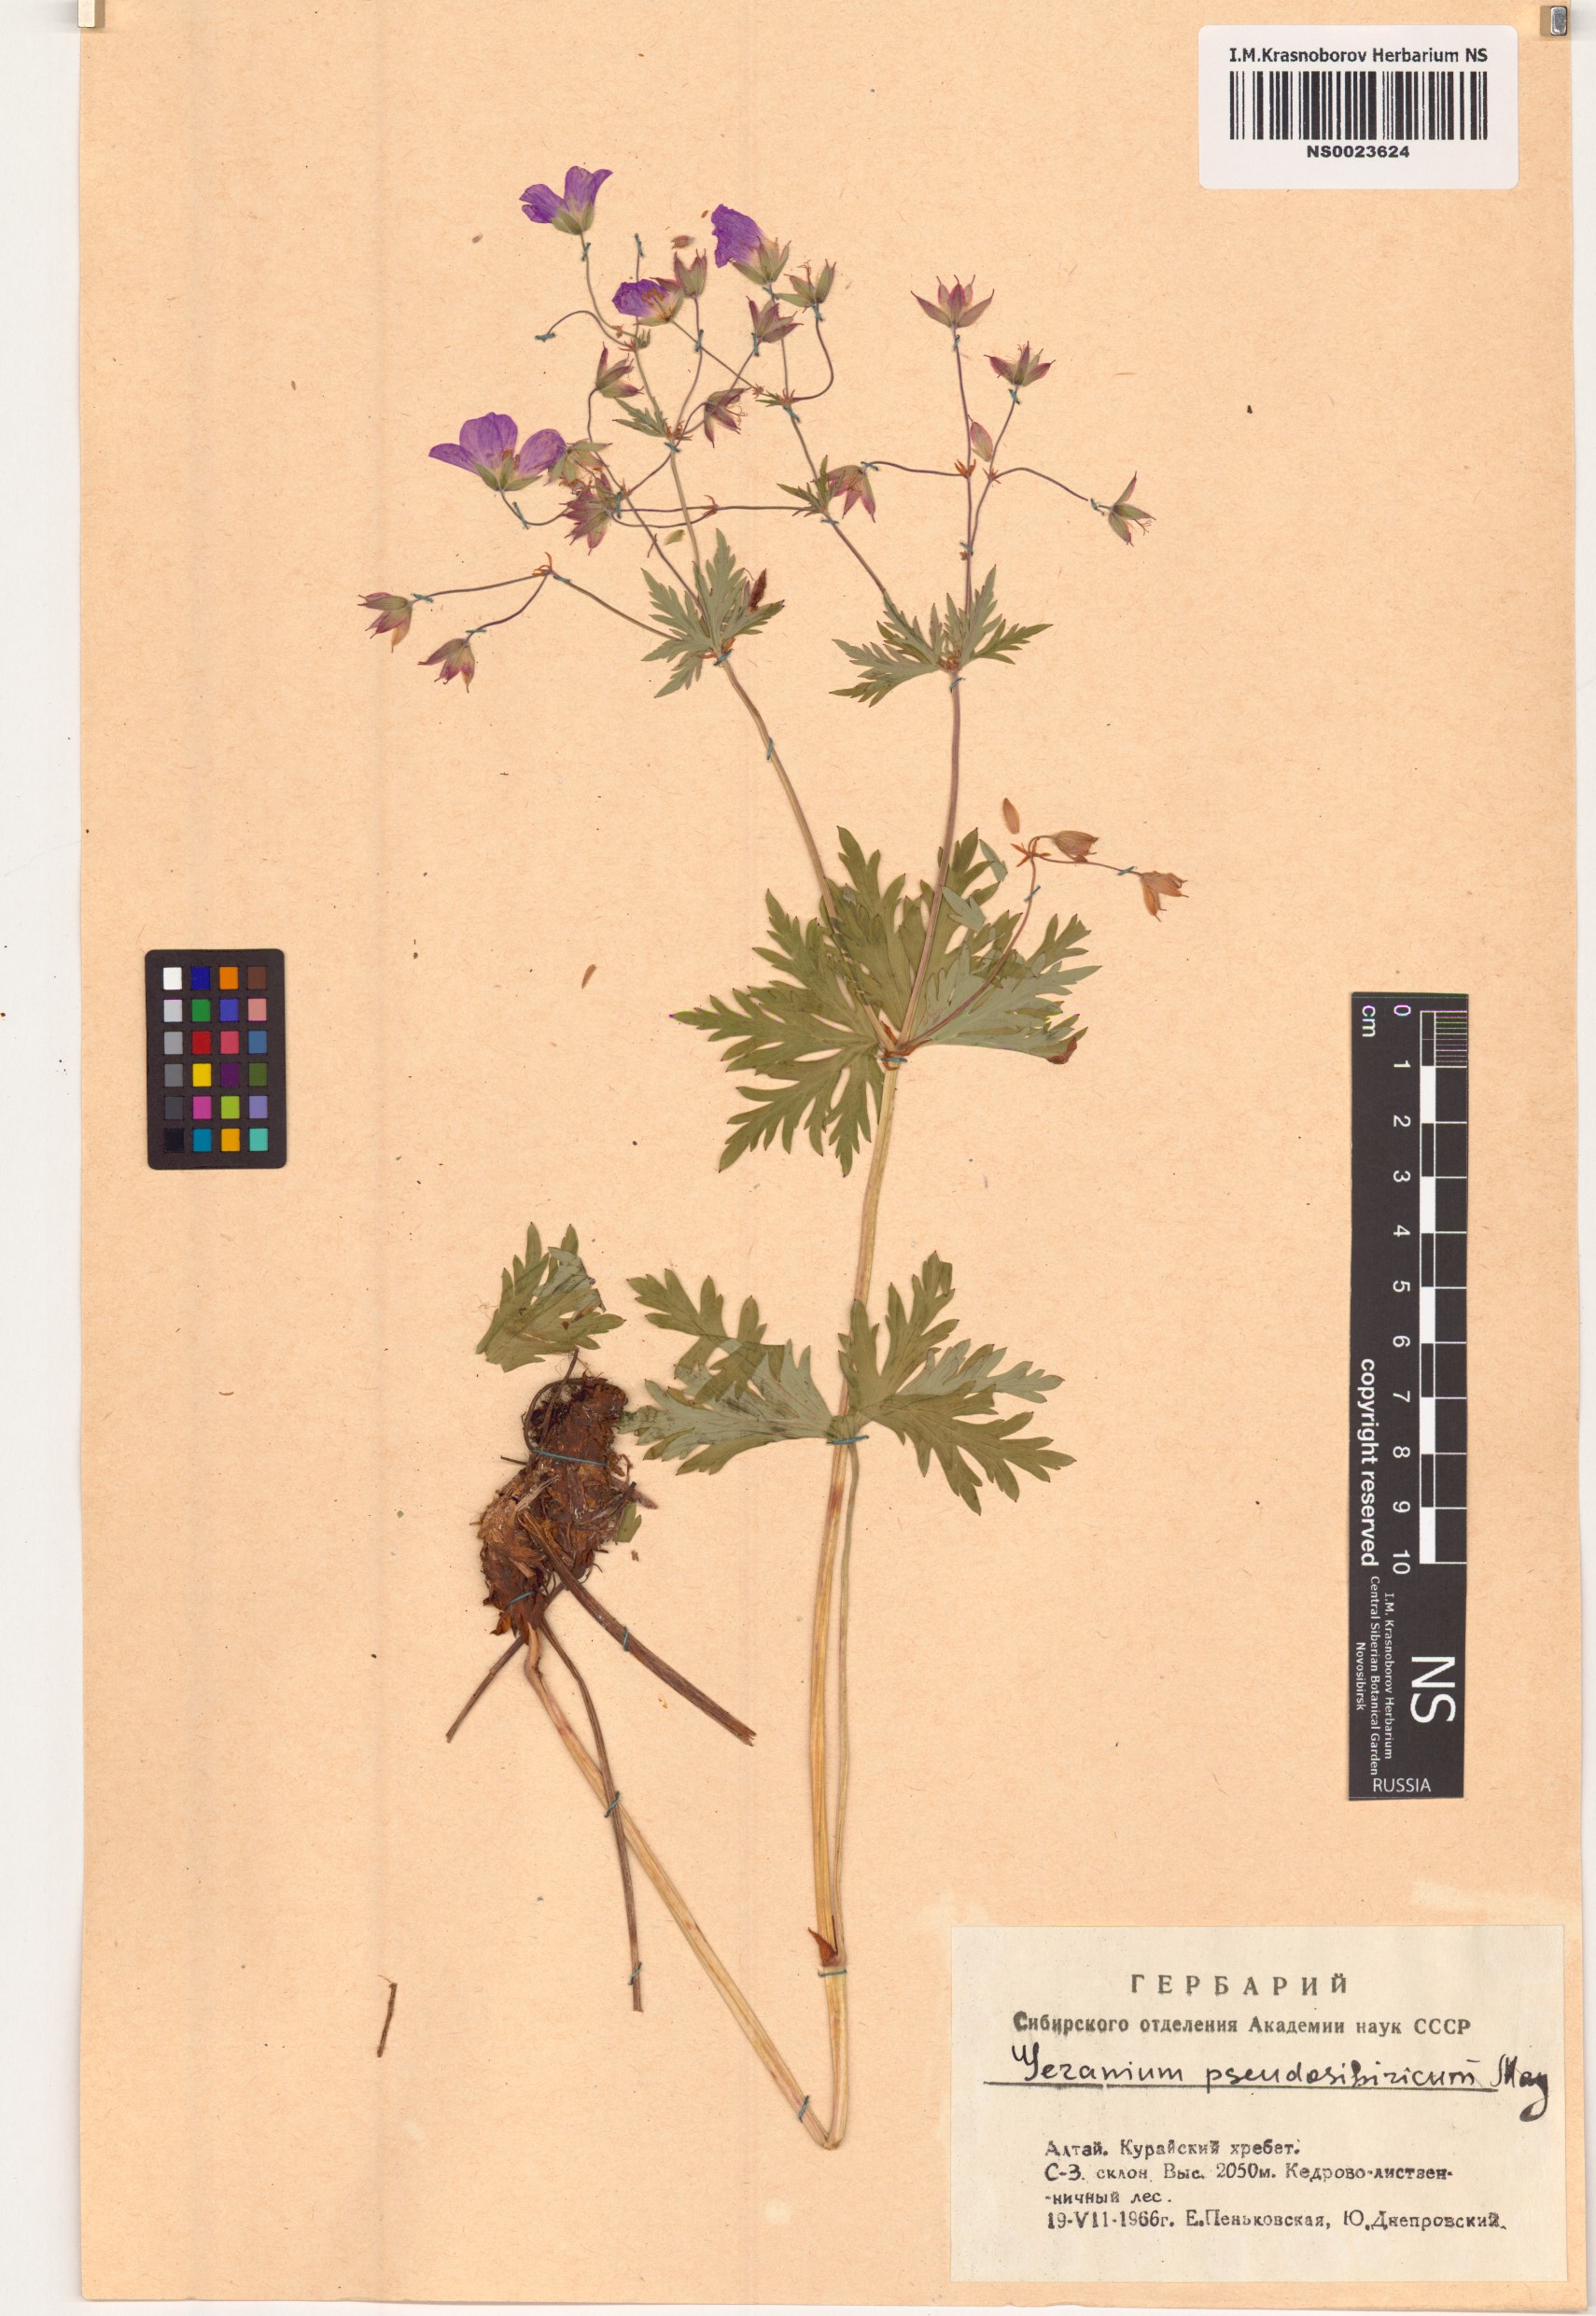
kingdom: Plantae
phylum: Tracheophyta
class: Magnoliopsida
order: Geraniales
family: Geraniaceae
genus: Geranium
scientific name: Geranium pseudosibiricum
